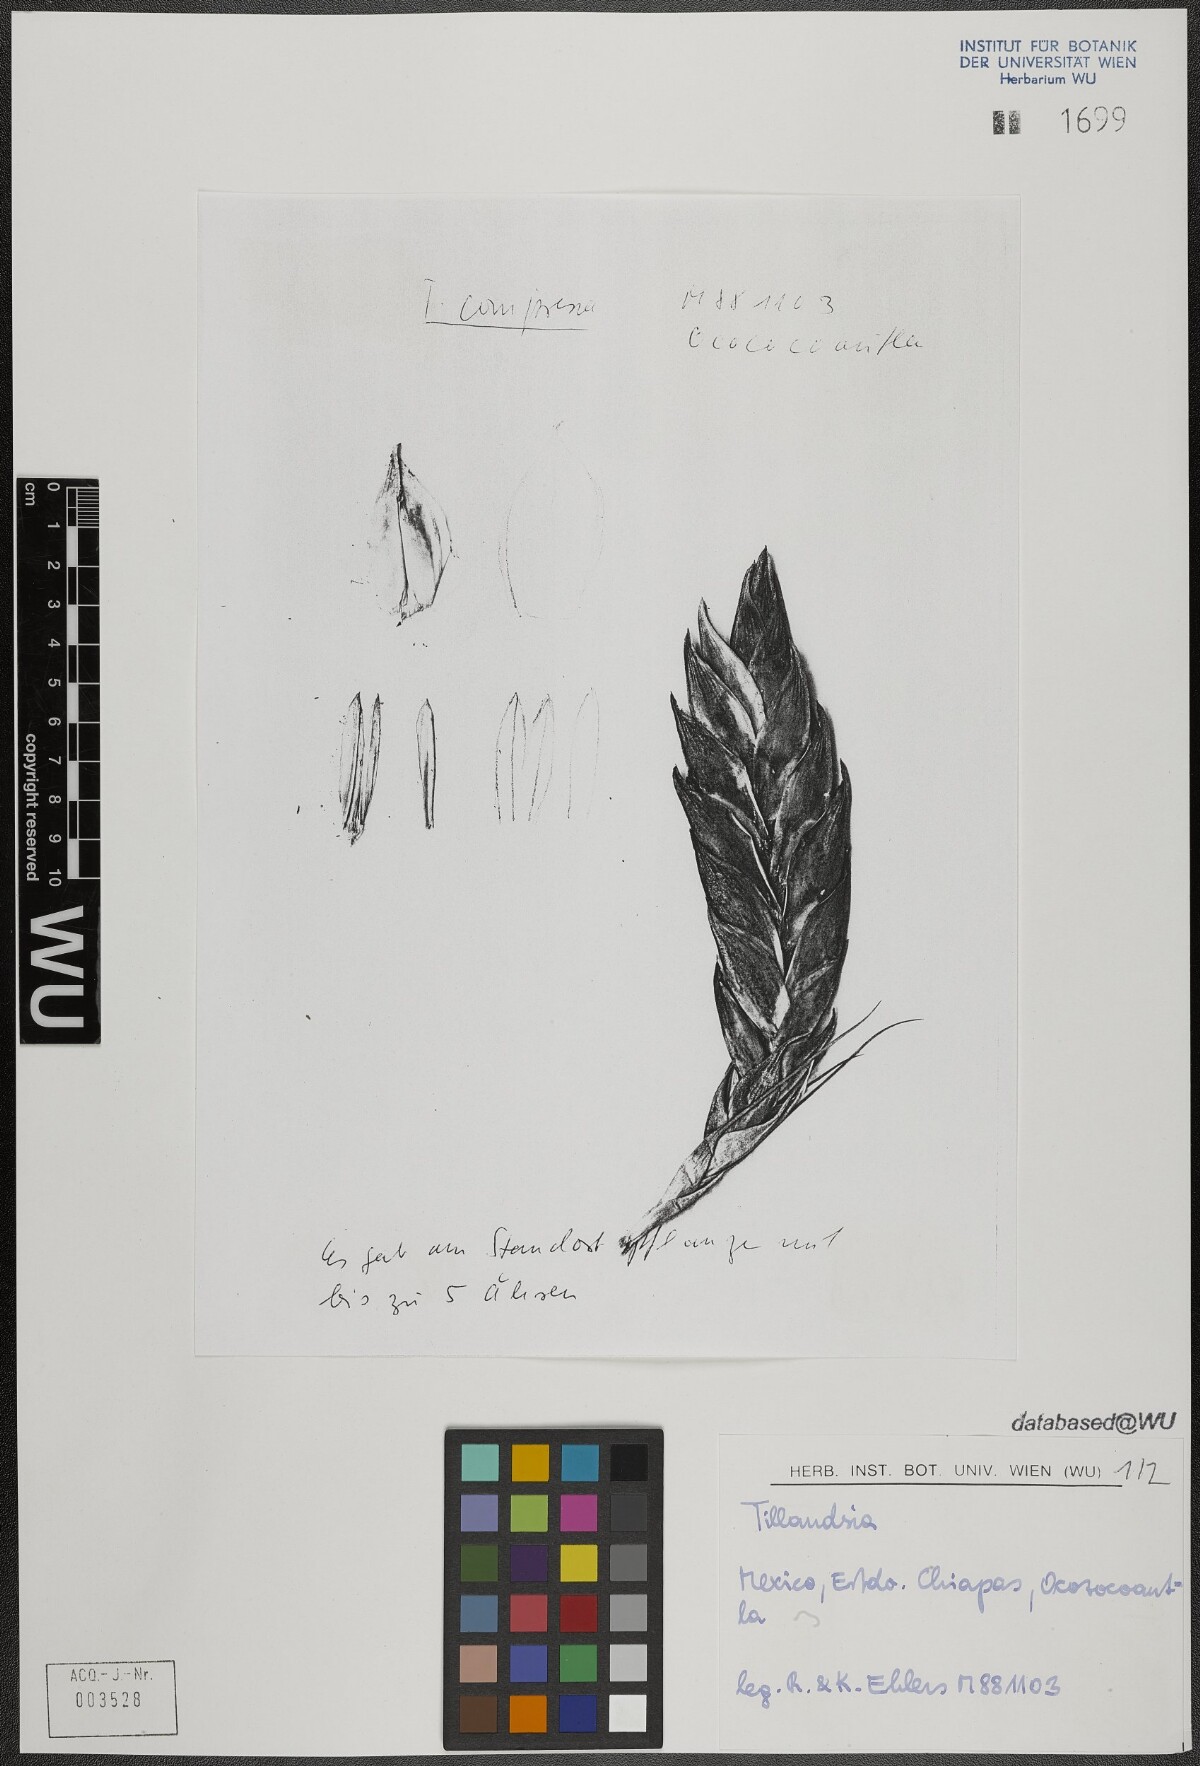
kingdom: Plantae
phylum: Tracheophyta
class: Liliopsida
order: Poales
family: Bromeliaceae
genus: Tillandsia
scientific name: Tillandsia fasciculata
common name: Giant airplant
